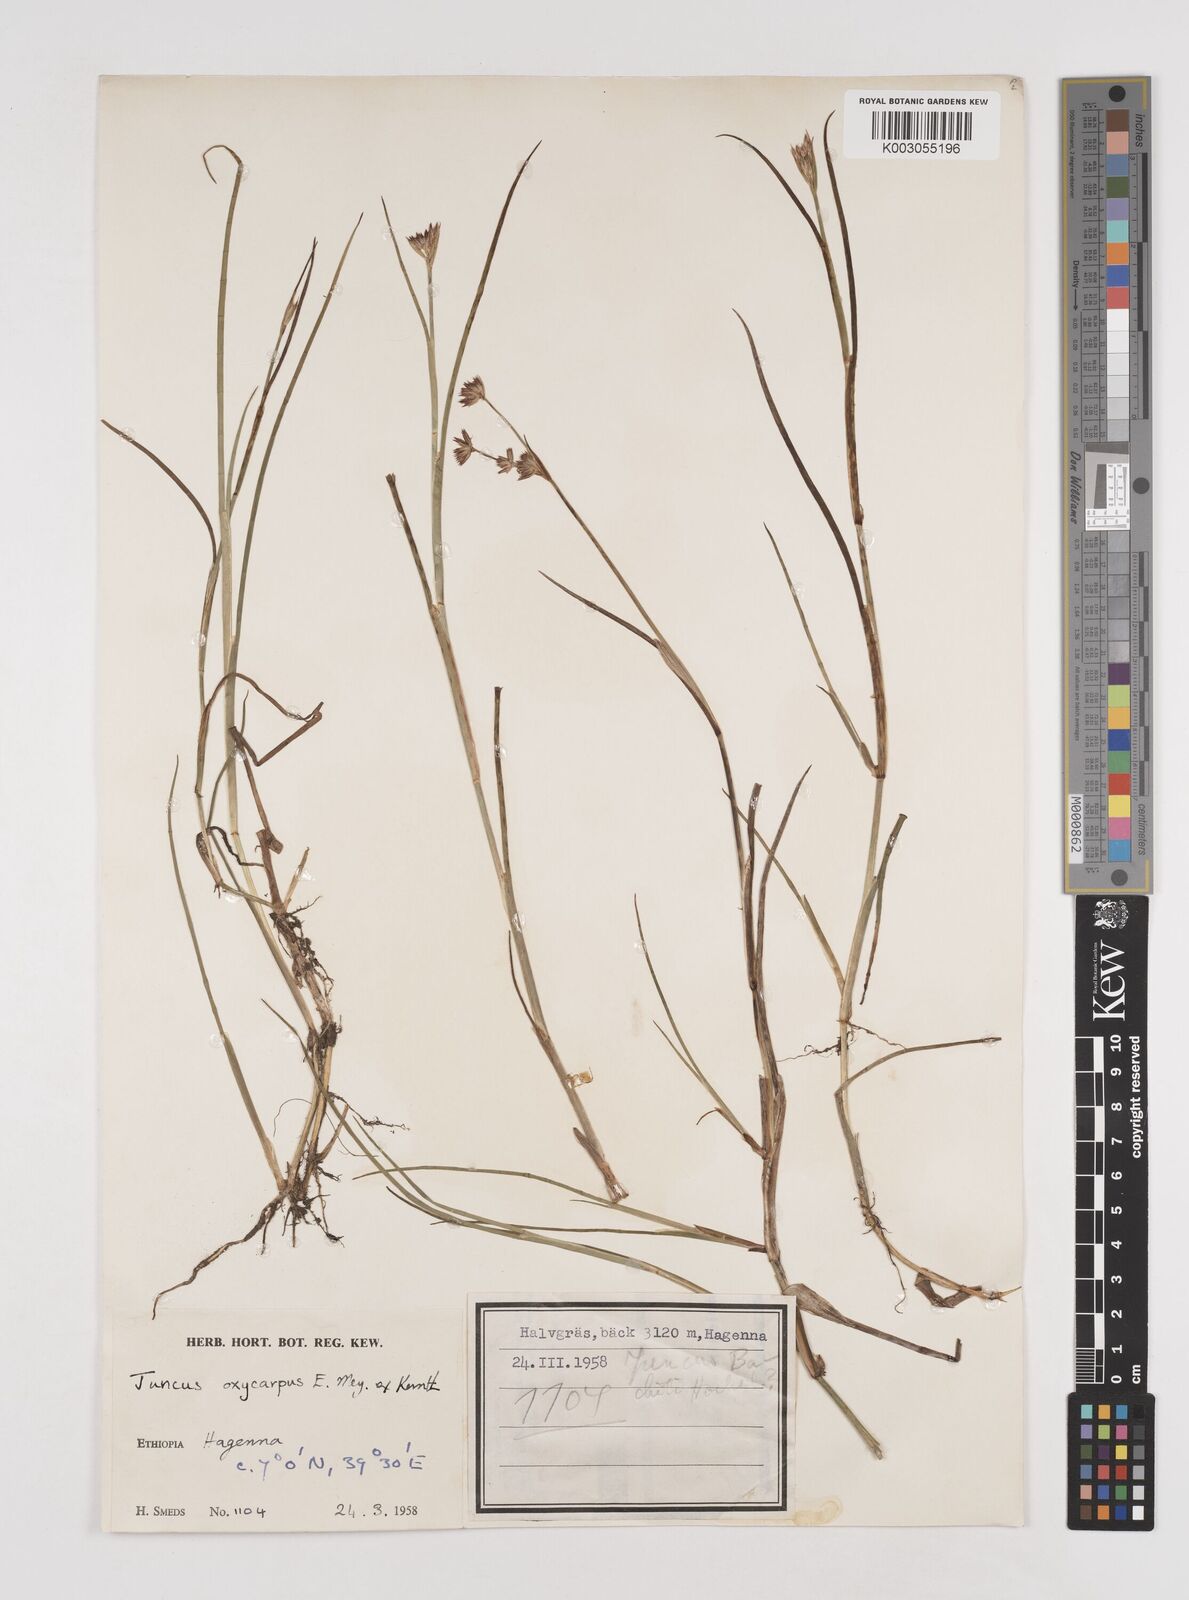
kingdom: Plantae
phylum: Tracheophyta
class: Liliopsida
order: Poales
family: Juncaceae
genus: Juncus
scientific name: Juncus oxycarpus
